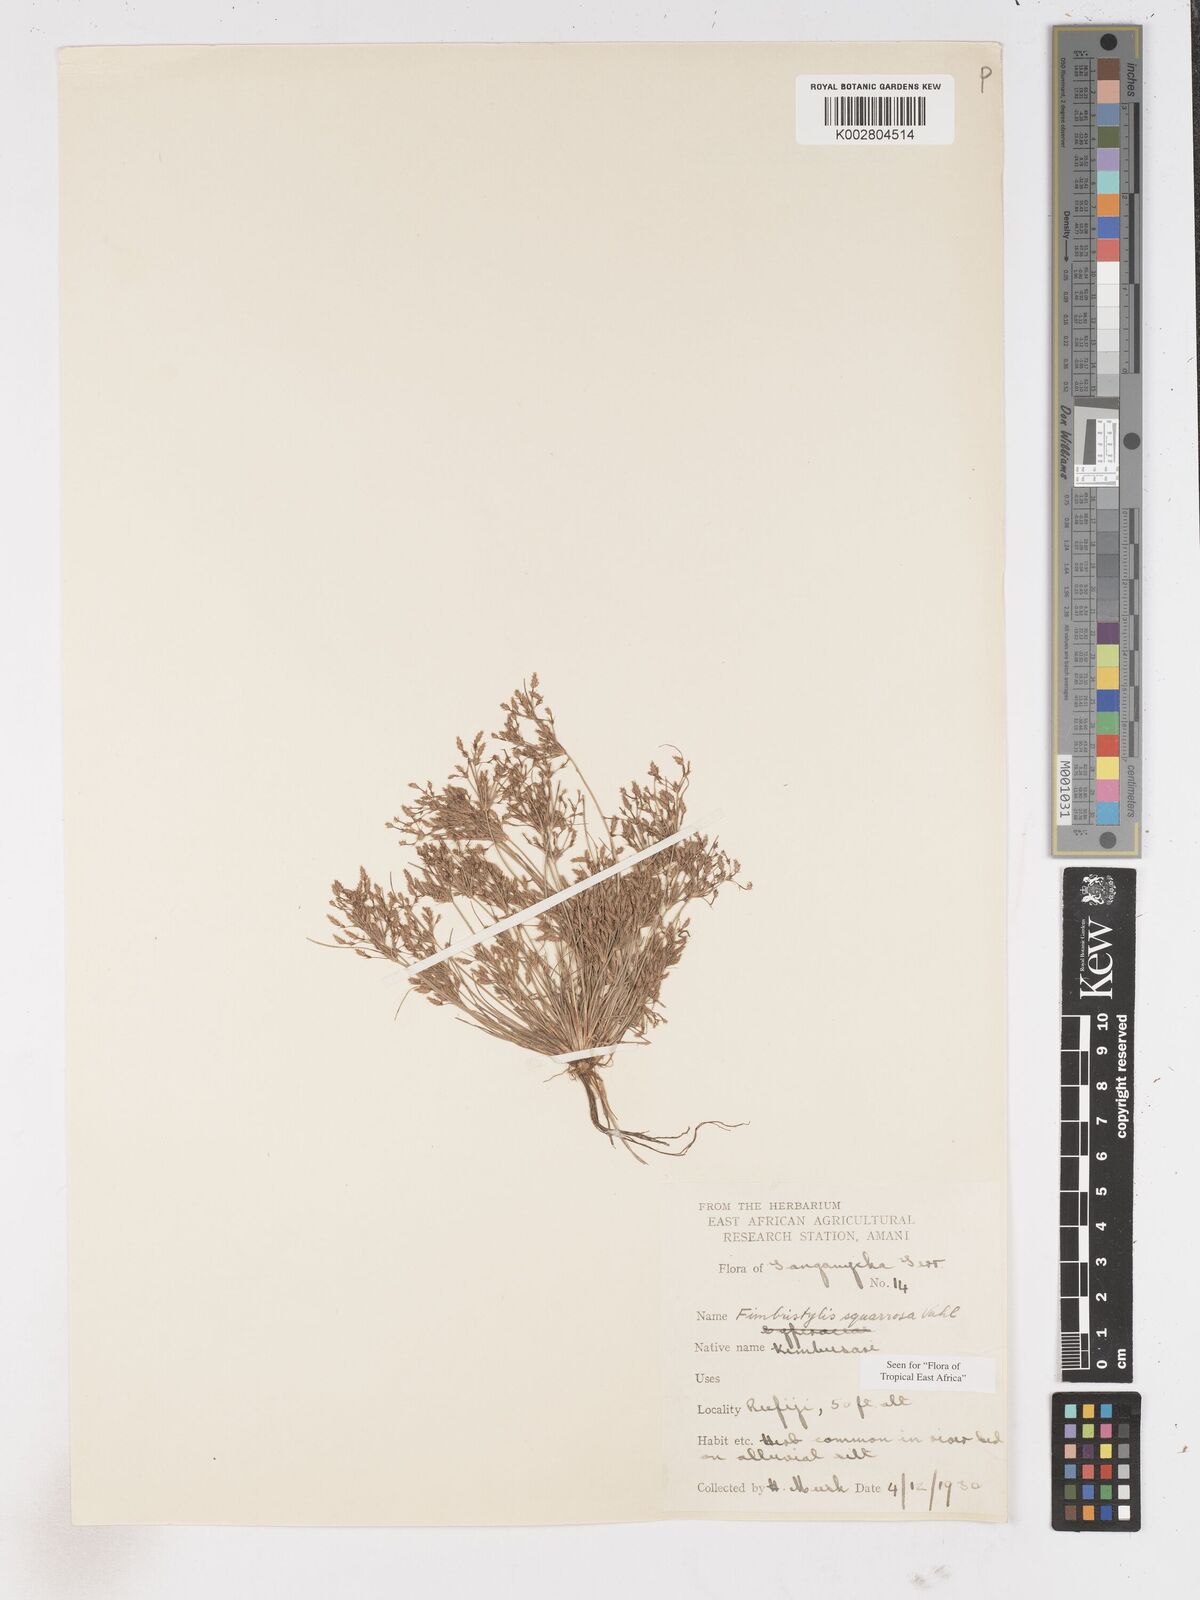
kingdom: Plantae
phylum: Tracheophyta
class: Liliopsida
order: Poales
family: Cyperaceae
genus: Fimbristylis
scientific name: Fimbristylis squarrosa
